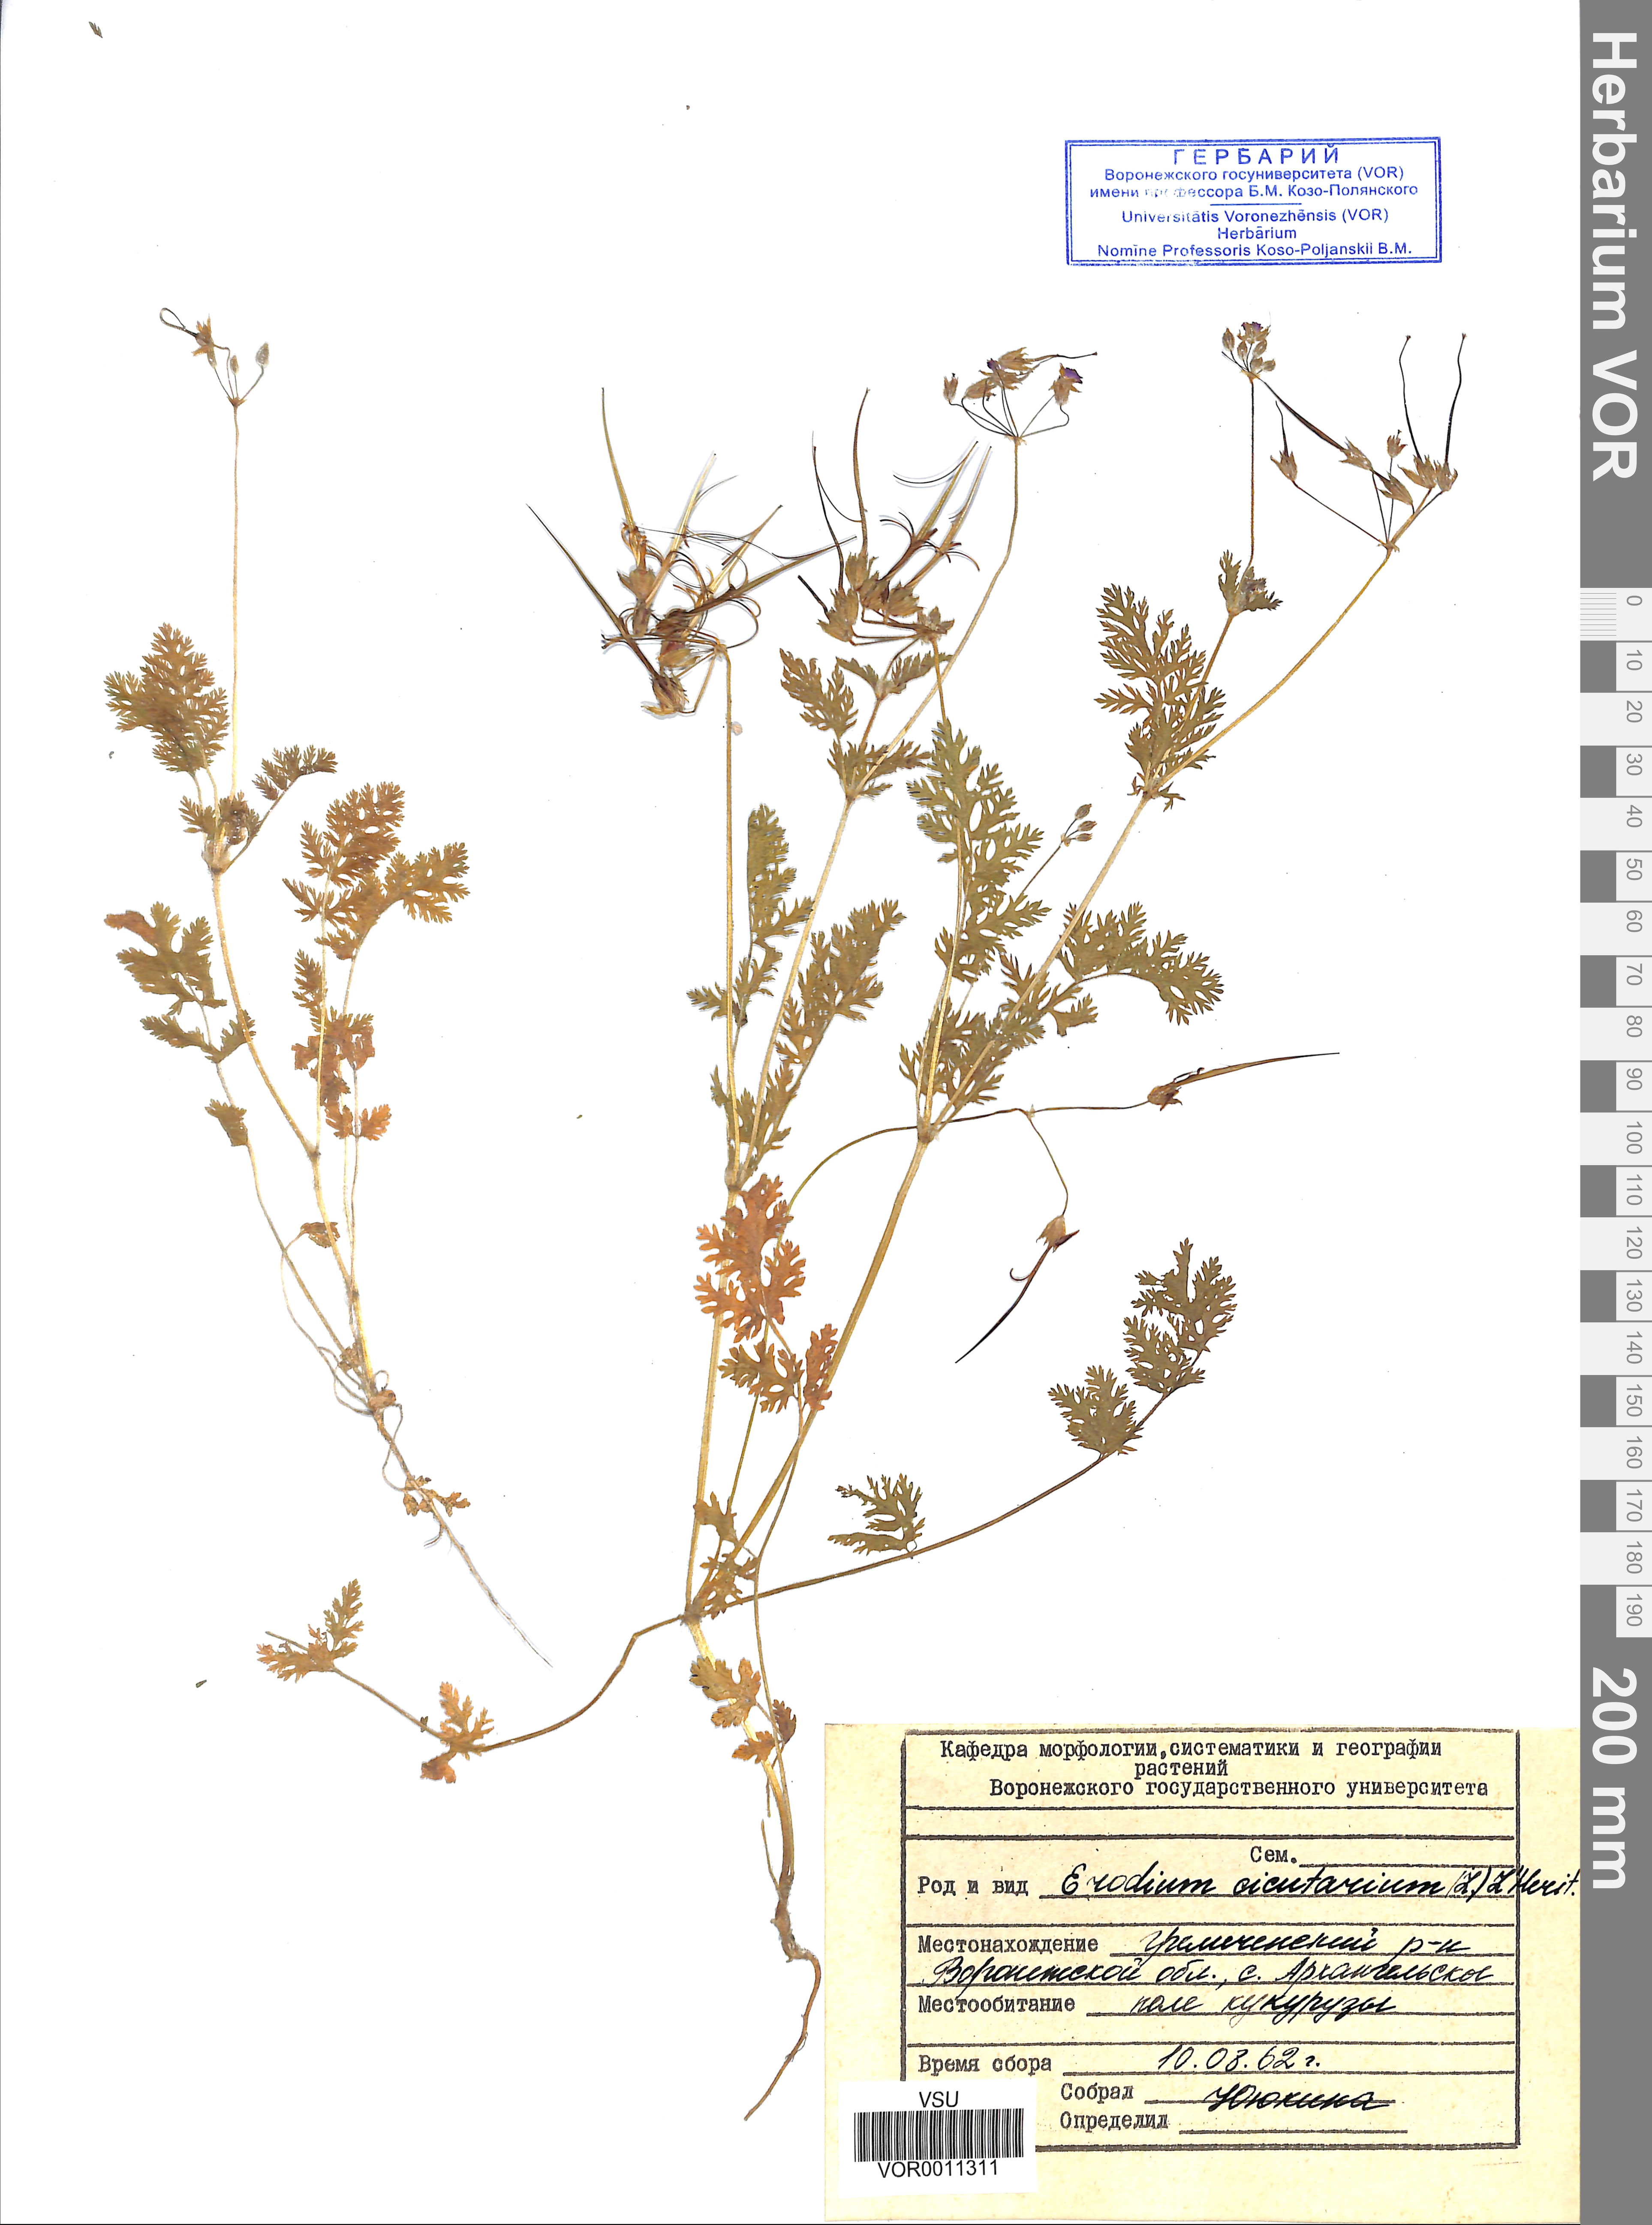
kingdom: Plantae
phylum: Tracheophyta
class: Magnoliopsida
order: Geraniales
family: Geraniaceae
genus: Erodium
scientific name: Erodium cicutarium
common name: Common stork's-bill
